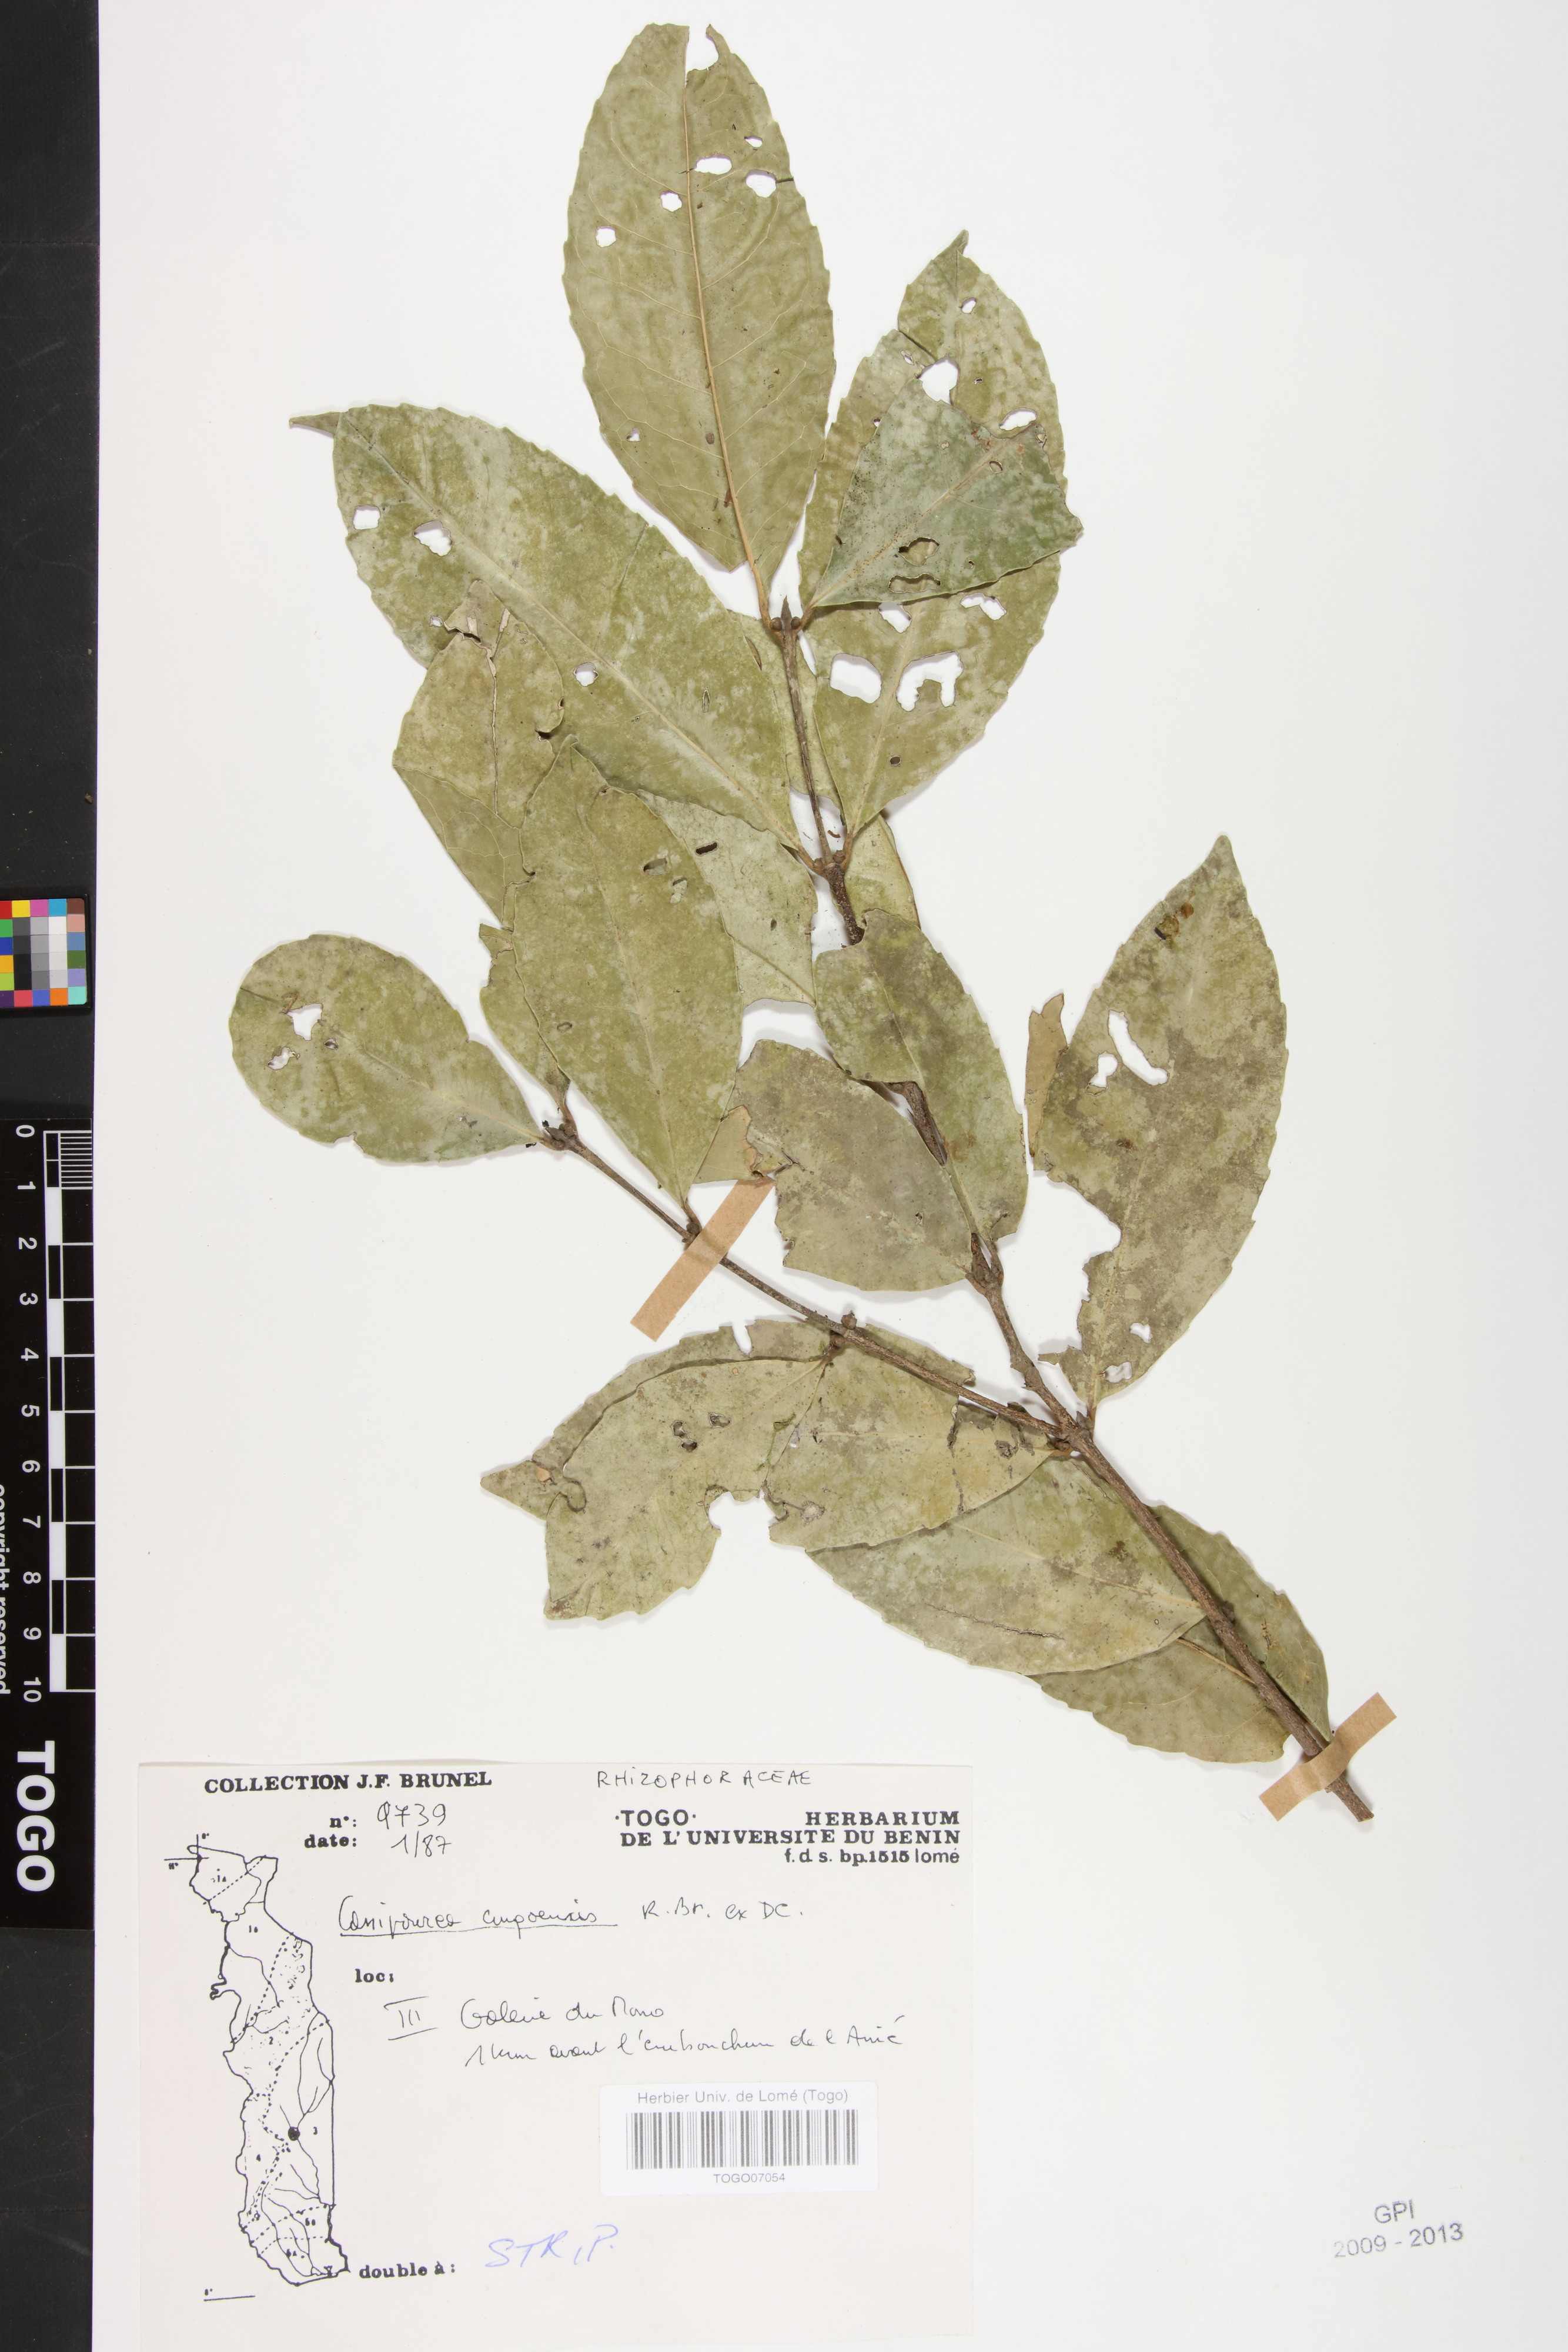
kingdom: Plantae
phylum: Tracheophyta
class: Magnoliopsida
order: Malpighiales
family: Rhizophoraceae
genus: Cassipourea
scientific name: Cassipourea congoensis
